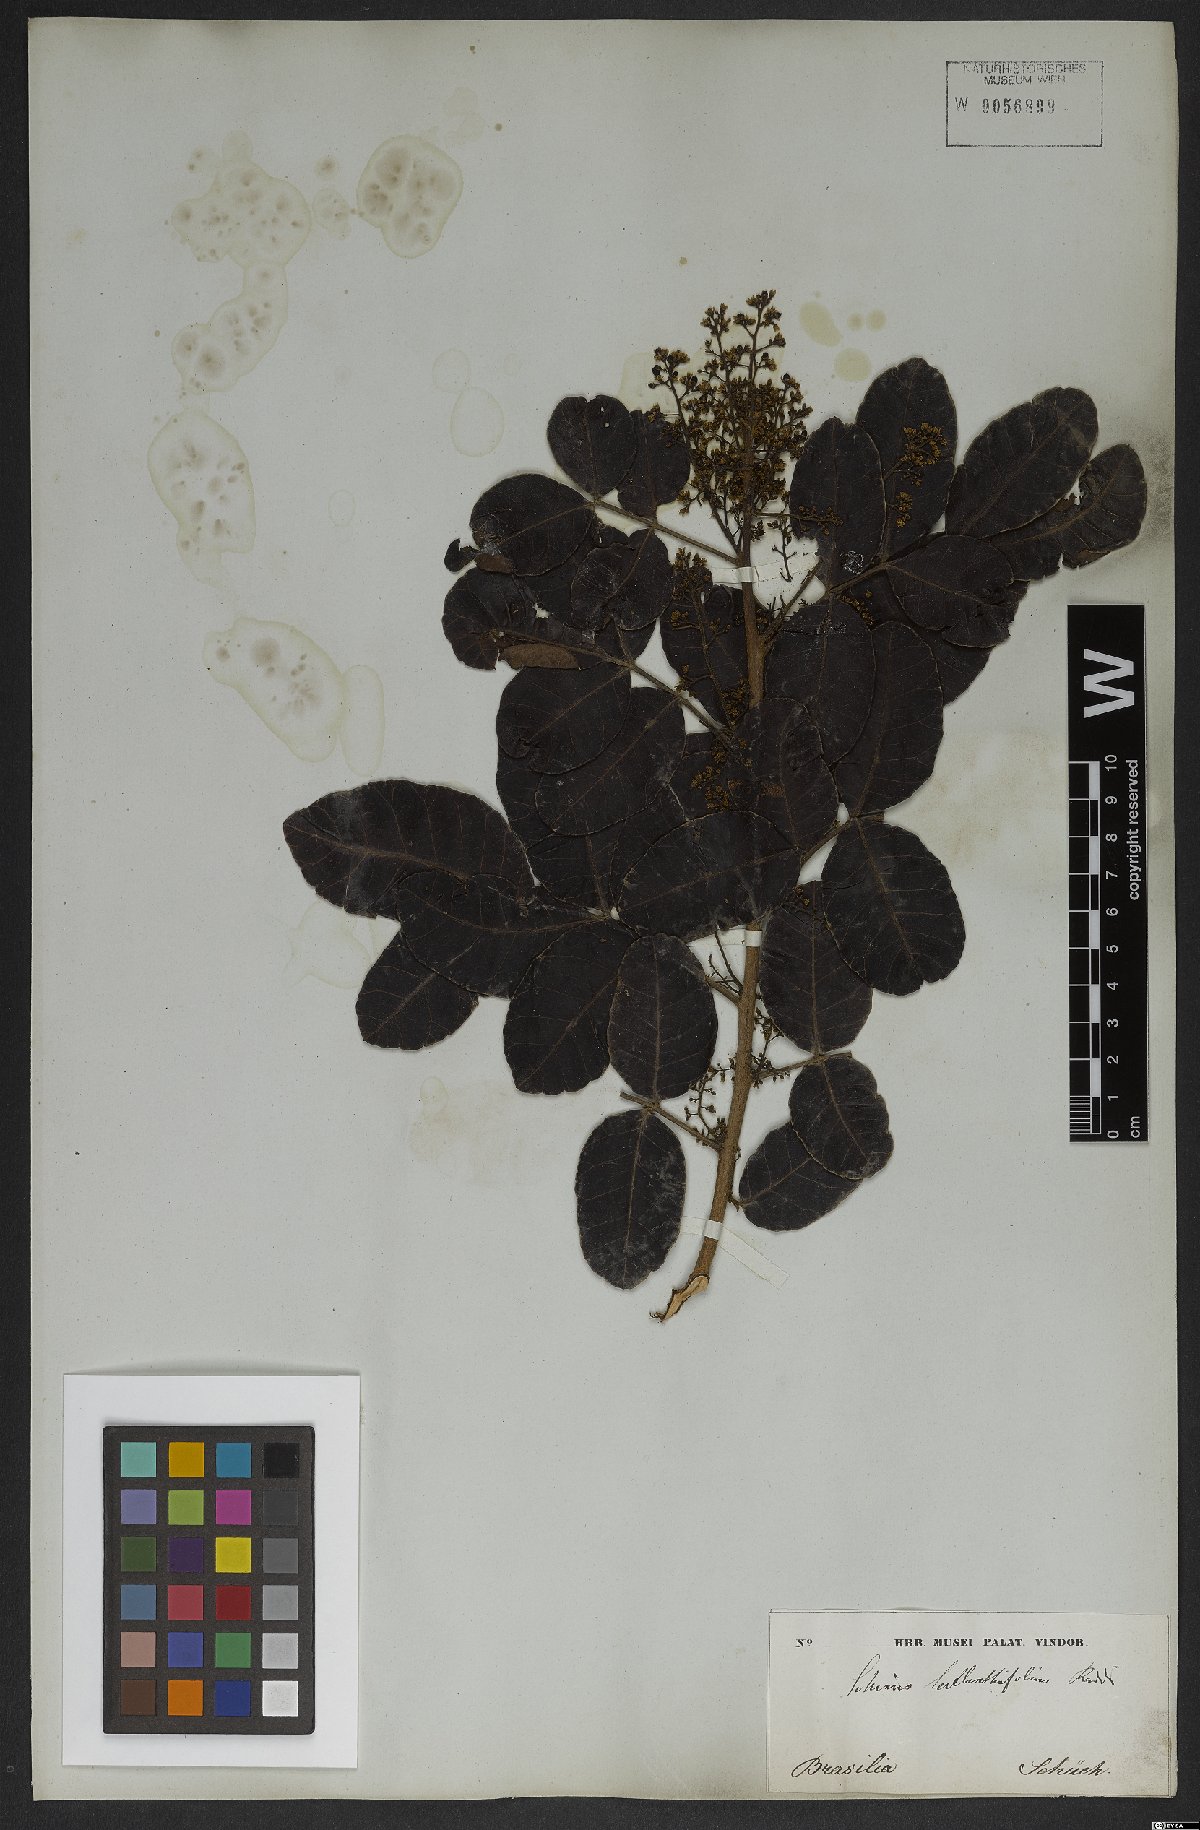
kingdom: Plantae
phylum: Tracheophyta
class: Magnoliopsida
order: Sapindales
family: Anacardiaceae
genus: Schinus
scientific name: Schinus terebinthifolia
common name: Brazilian peppertree
